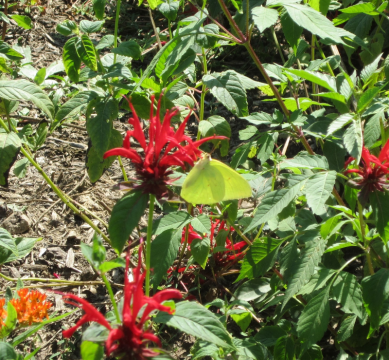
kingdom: Animalia
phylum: Arthropoda
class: Insecta
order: Lepidoptera
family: Pieridae
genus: Phoebis
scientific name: Phoebis sennae
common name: Cloudless Sulphur
